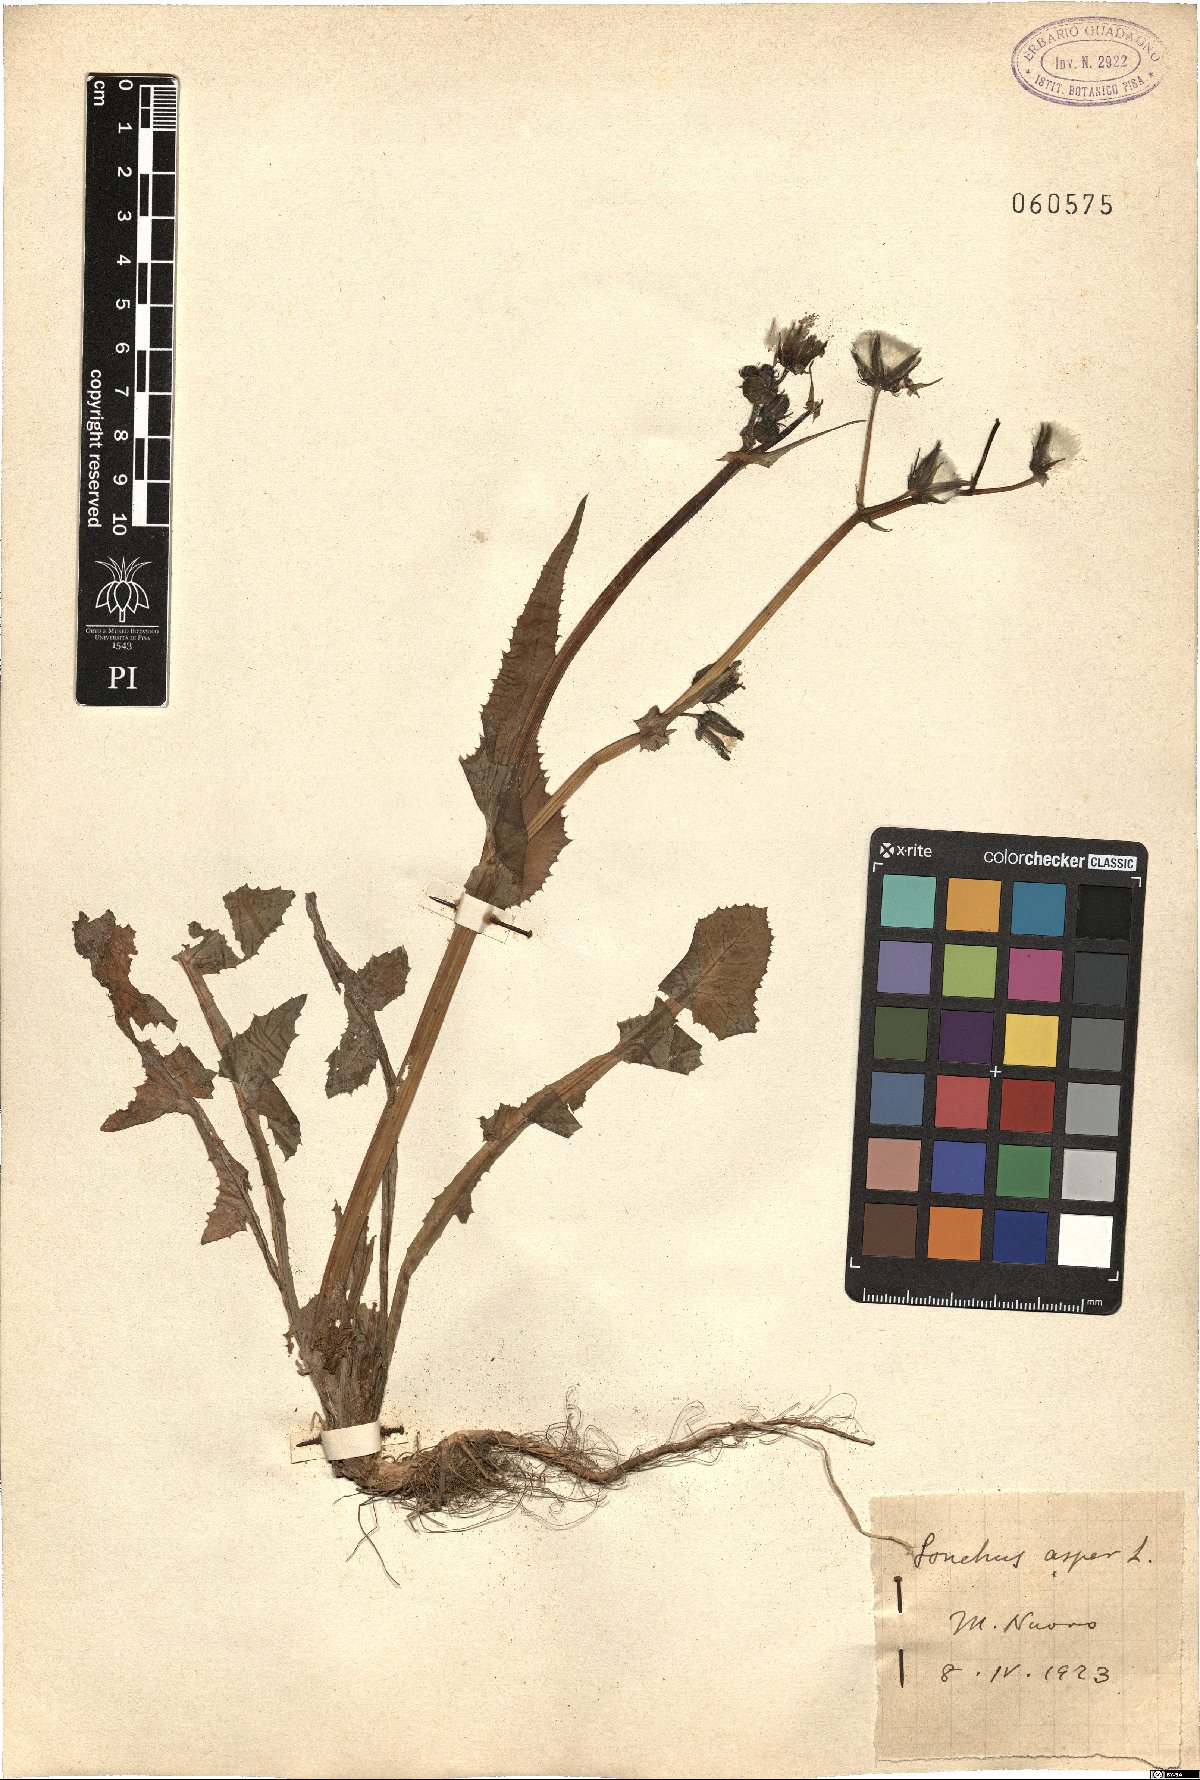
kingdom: Plantae
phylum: Tracheophyta
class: Magnoliopsida
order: Asterales
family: Asteraceae
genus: Sonchus
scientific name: Sonchus asper
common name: Prickly sow-thistle
